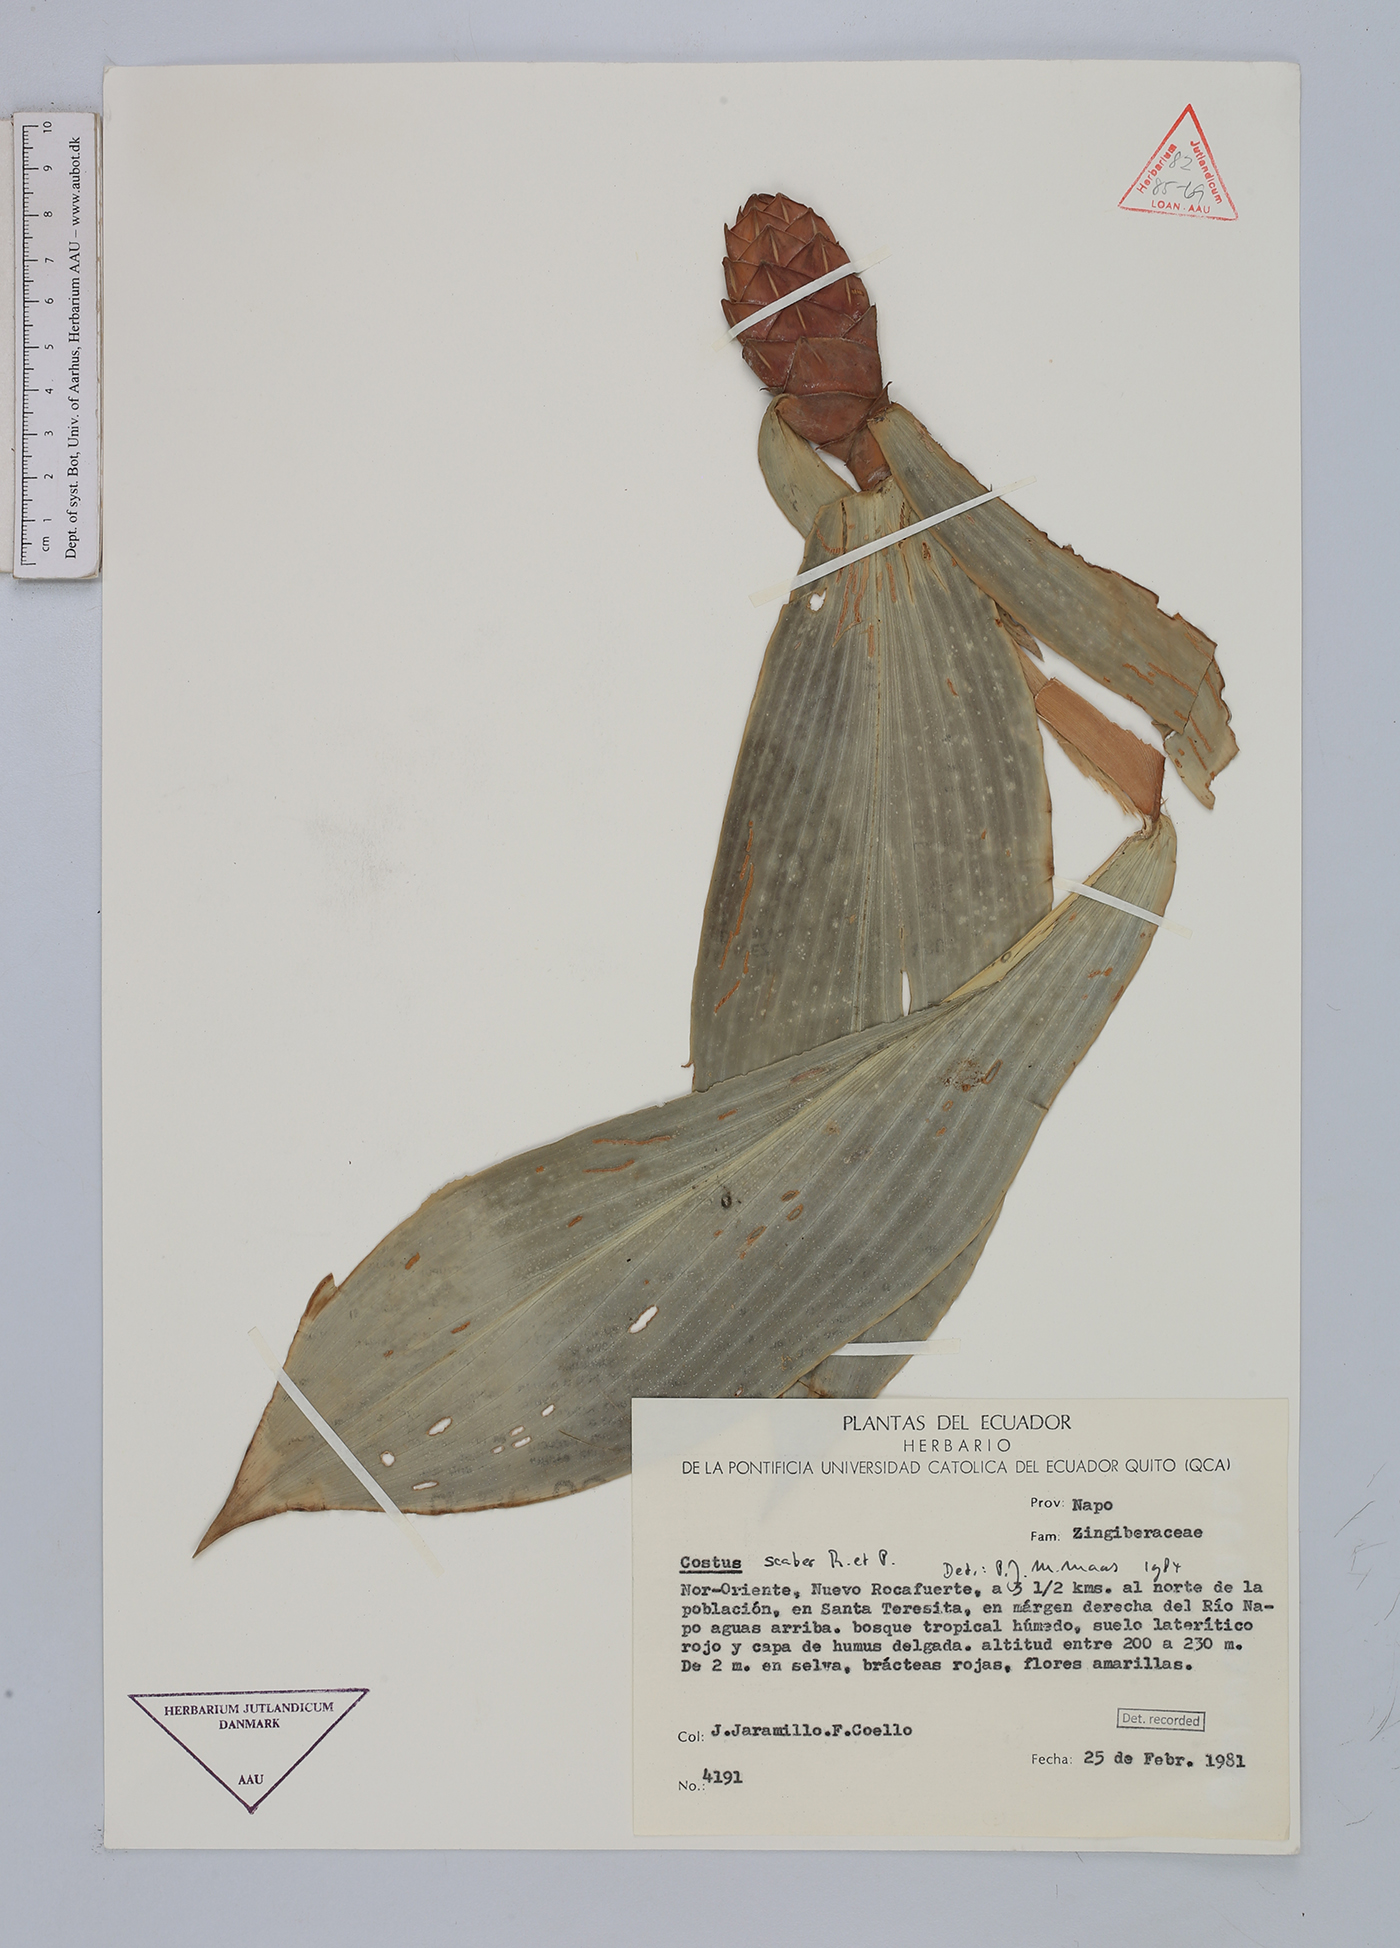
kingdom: Plantae
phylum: Tracheophyta
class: Liliopsida
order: Zingiberales
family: Costaceae
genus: Costus
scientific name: Costus scaber
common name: Spiral head ginger
